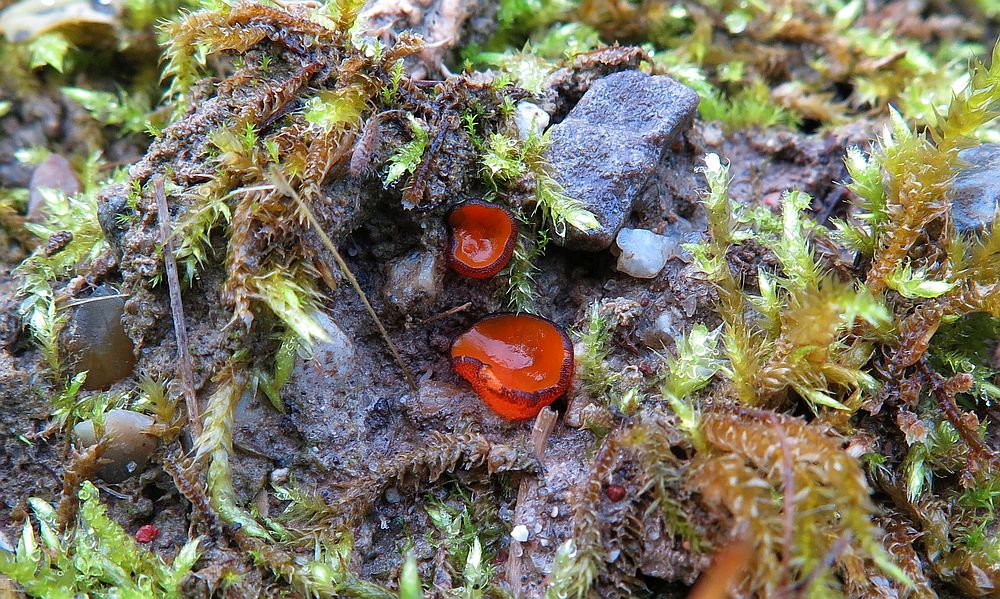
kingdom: Fungi
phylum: Ascomycota
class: Pezizomycetes
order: Pezizales
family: Pyronemataceae
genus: Melastiza
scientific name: Melastiza cornubiensis
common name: mørkrandet rødbæger
